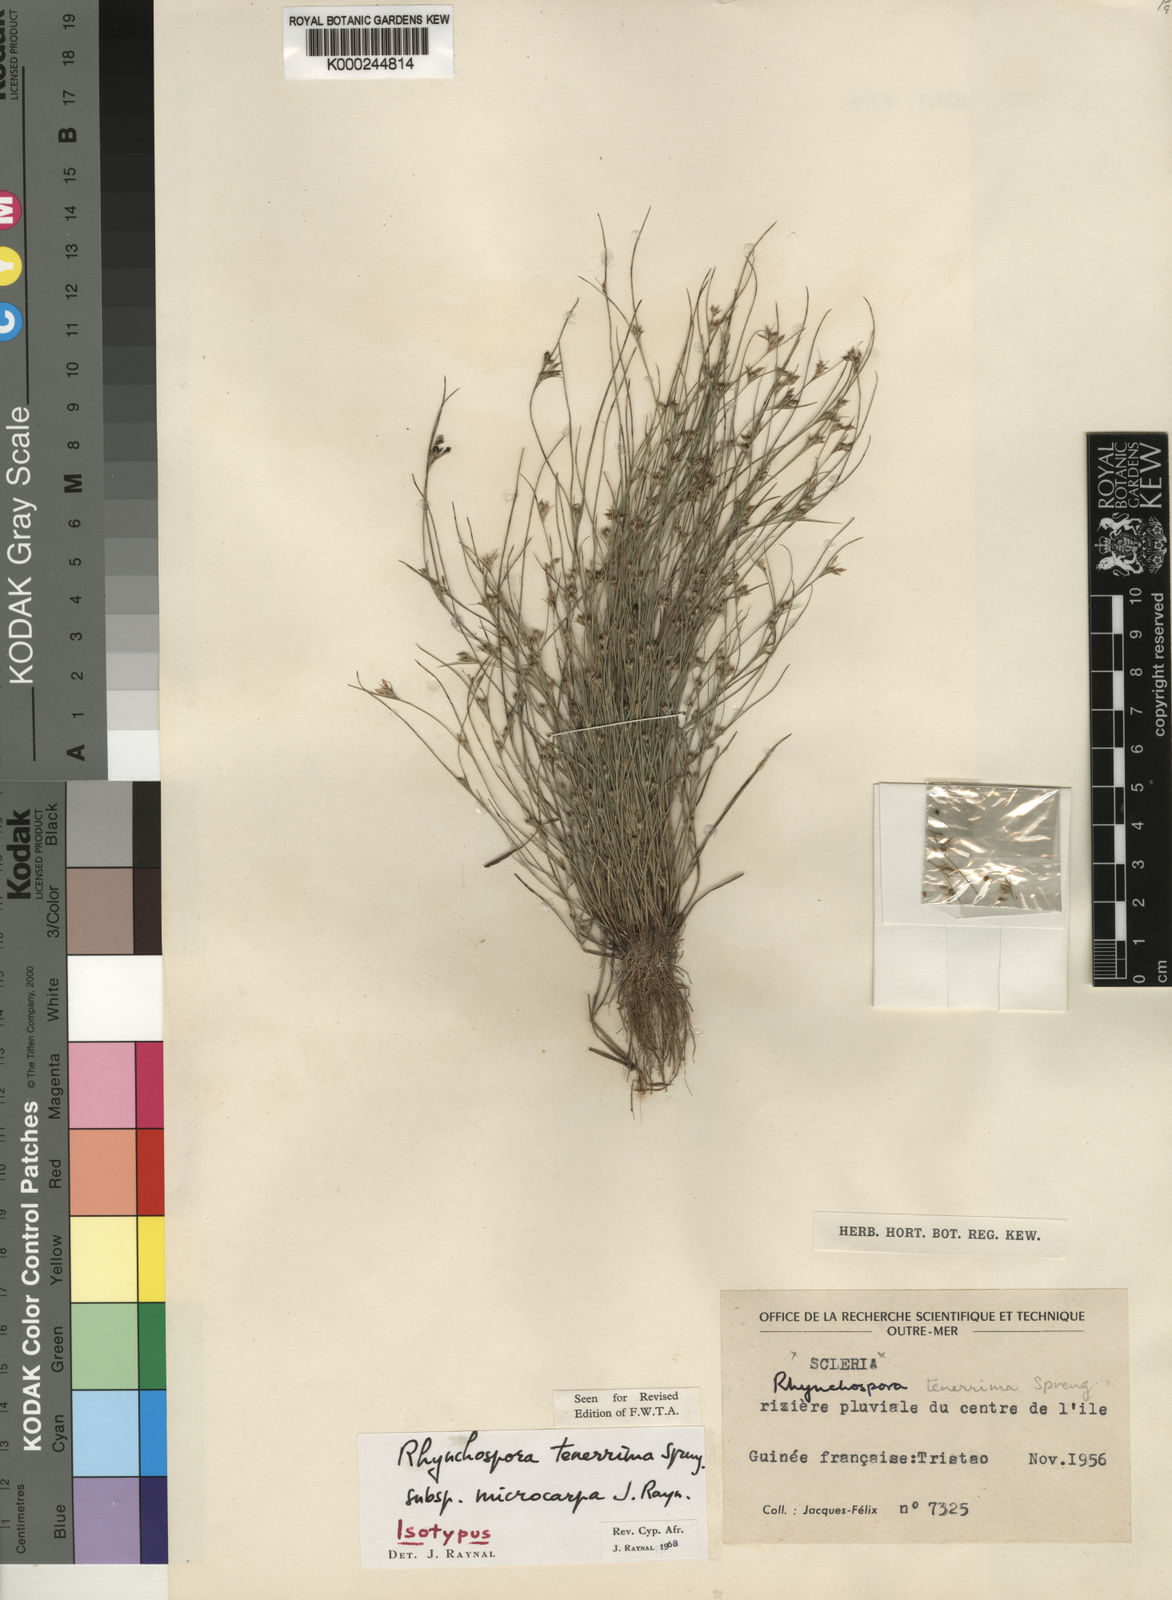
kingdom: Plantae
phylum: Tracheophyta
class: Liliopsida
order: Poales
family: Cyperaceae
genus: Rhynchospora
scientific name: Rhynchospora tenerrima
